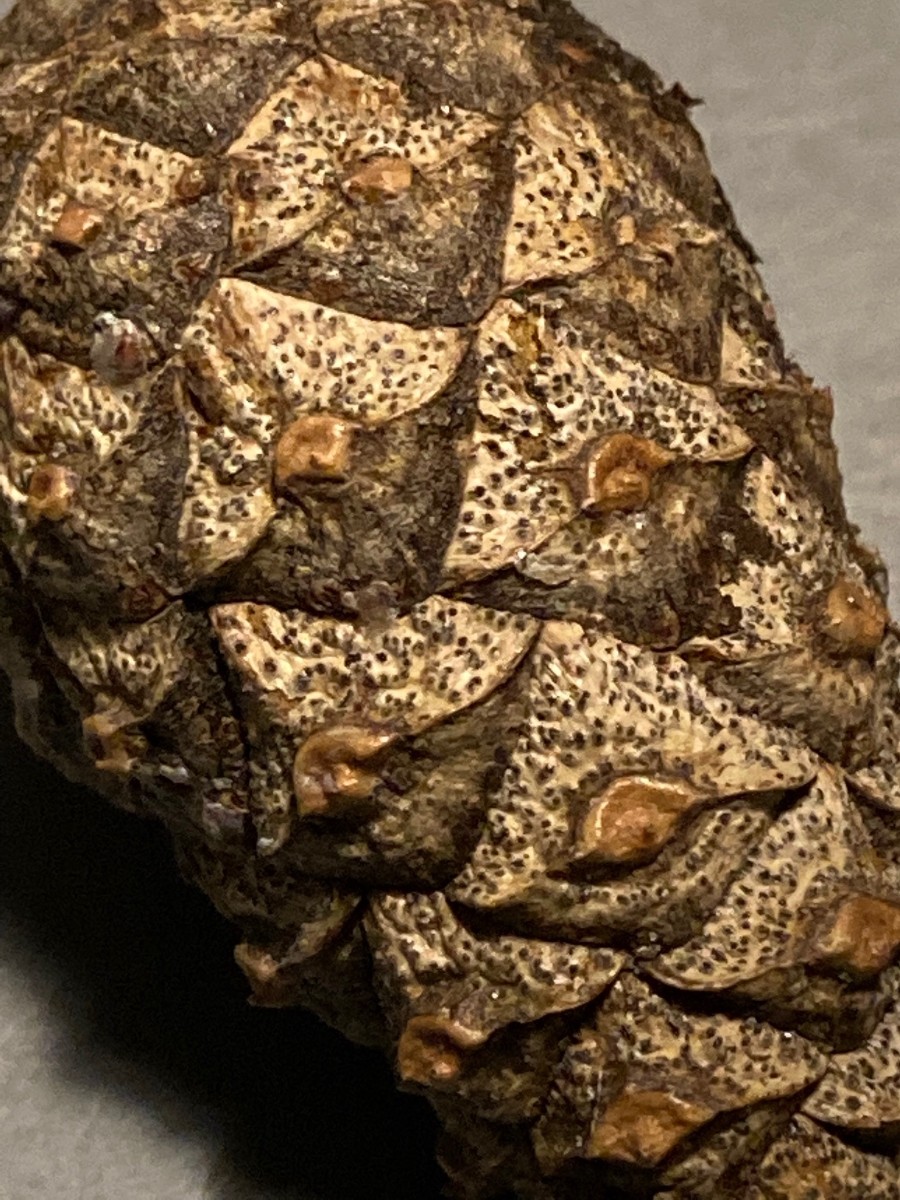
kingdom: Fungi
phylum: Ascomycota
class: Dothideomycetes
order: Botryosphaeriales
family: Botryosphaeriaceae
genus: Sphaeropsis
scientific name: Sphaeropsis sapinea
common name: Sphaeropsis blight
